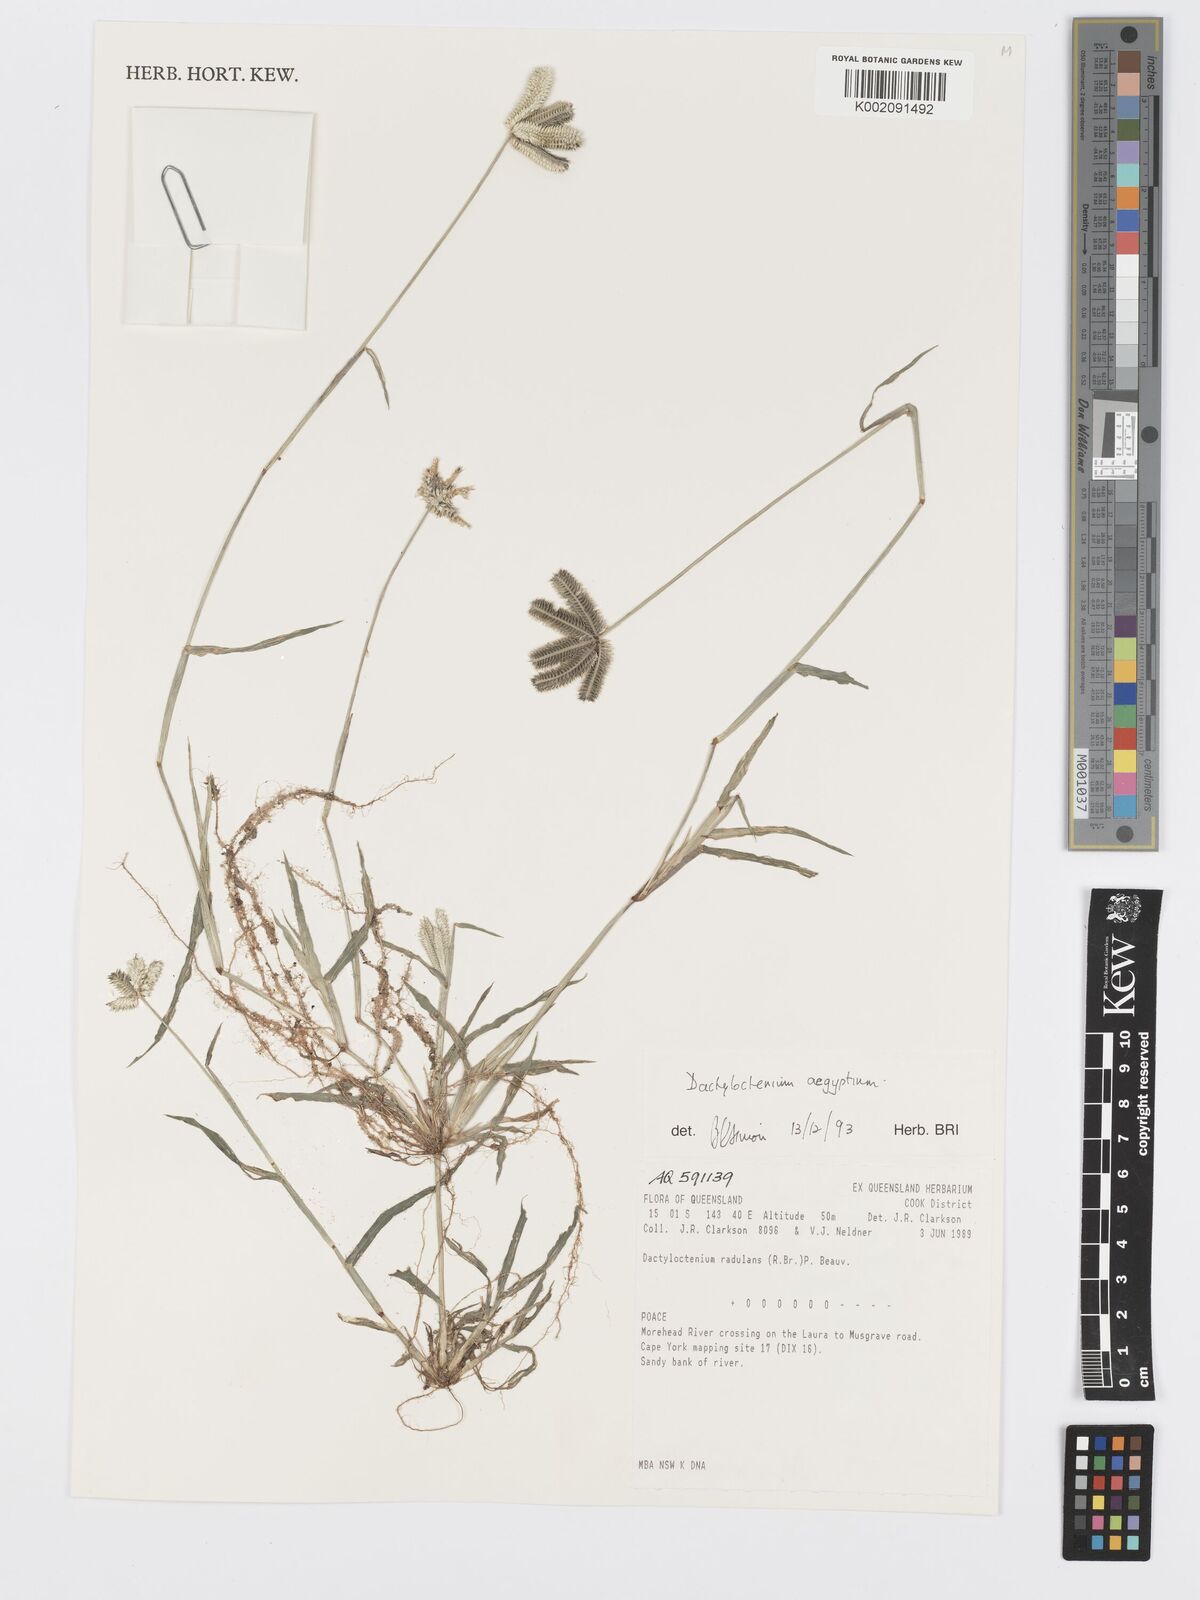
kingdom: Plantae
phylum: Tracheophyta
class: Liliopsida
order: Poales
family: Poaceae
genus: Dactyloctenium
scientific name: Dactyloctenium aegyptium
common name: Egyptian grass
